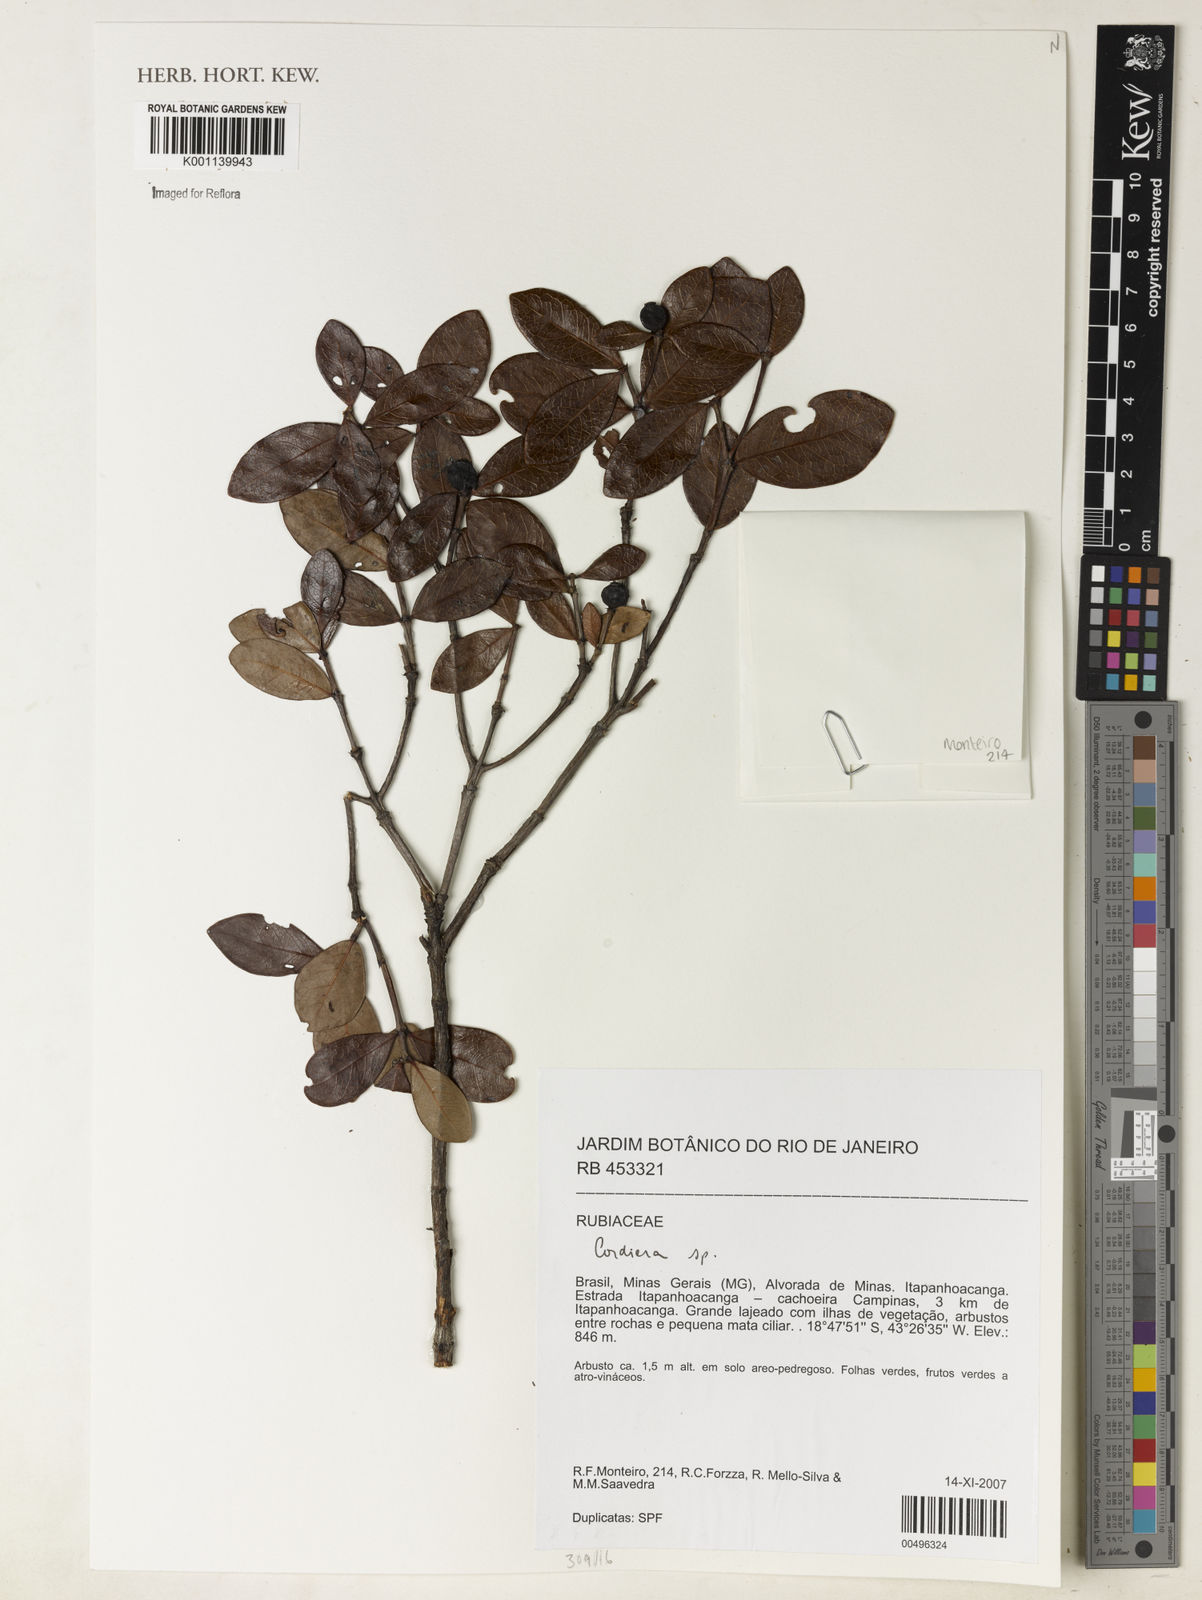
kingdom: Plantae
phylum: Tracheophyta
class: Magnoliopsida
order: Gentianales
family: Rubiaceae
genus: Alibertia
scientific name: Alibertia
